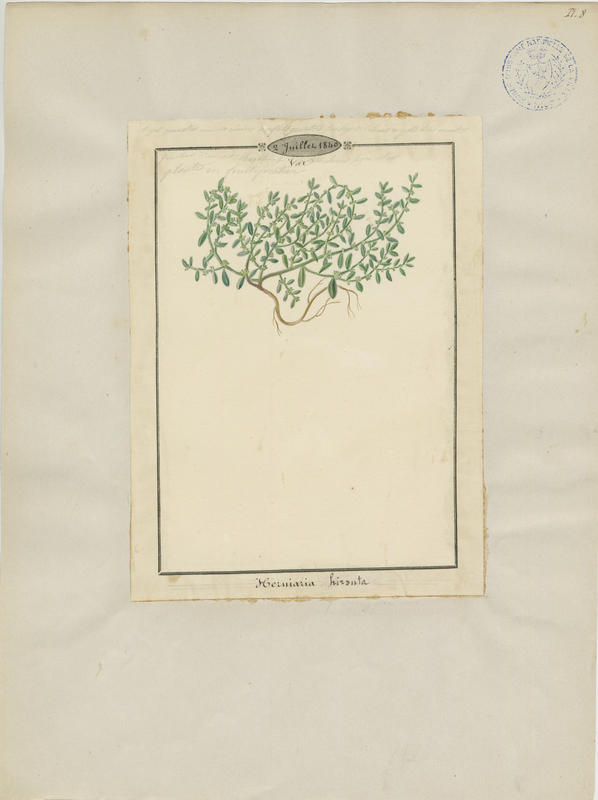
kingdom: Plantae
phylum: Tracheophyta
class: Magnoliopsida
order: Caryophyllales
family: Caryophyllaceae
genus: Herniaria
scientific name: Herniaria hirsuta
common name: Hairy rupturewort
